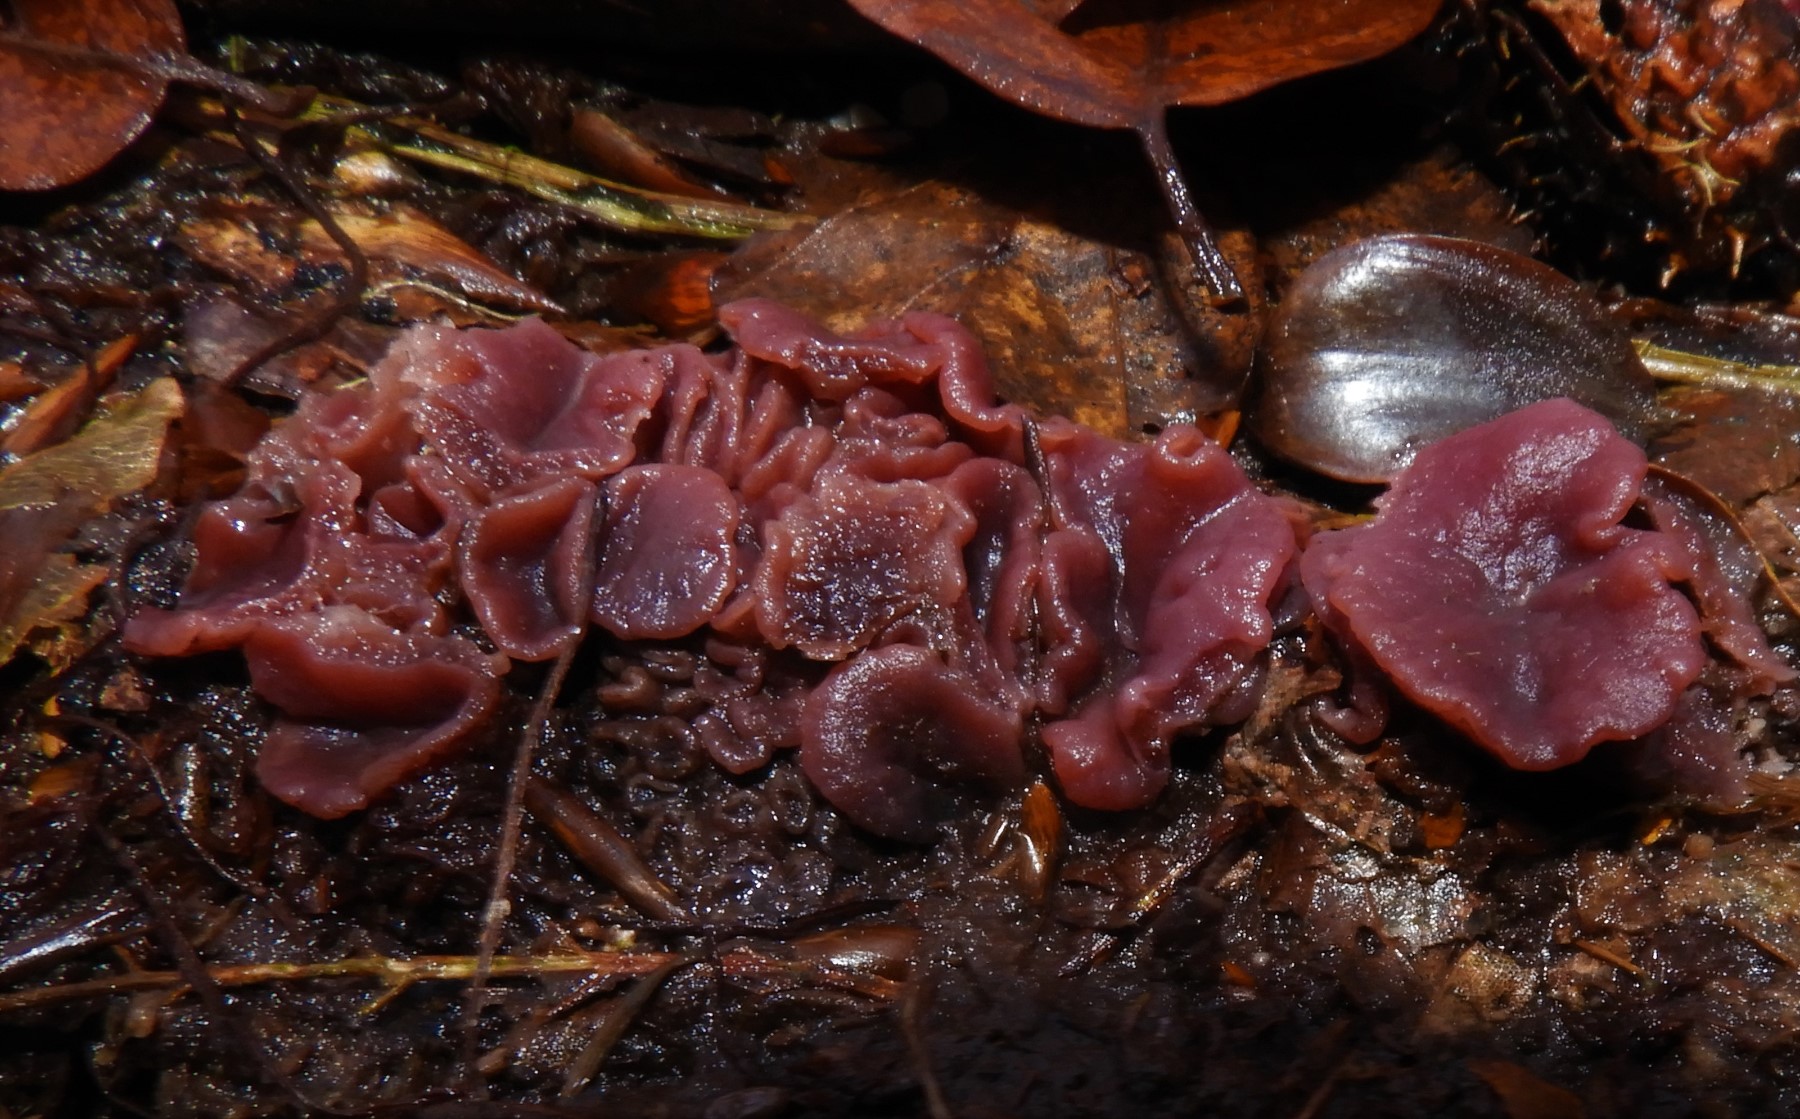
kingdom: Fungi
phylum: Ascomycota
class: Leotiomycetes
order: Helotiales
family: Gelatinodiscaceae
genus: Ascocoryne
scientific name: Ascocoryne
